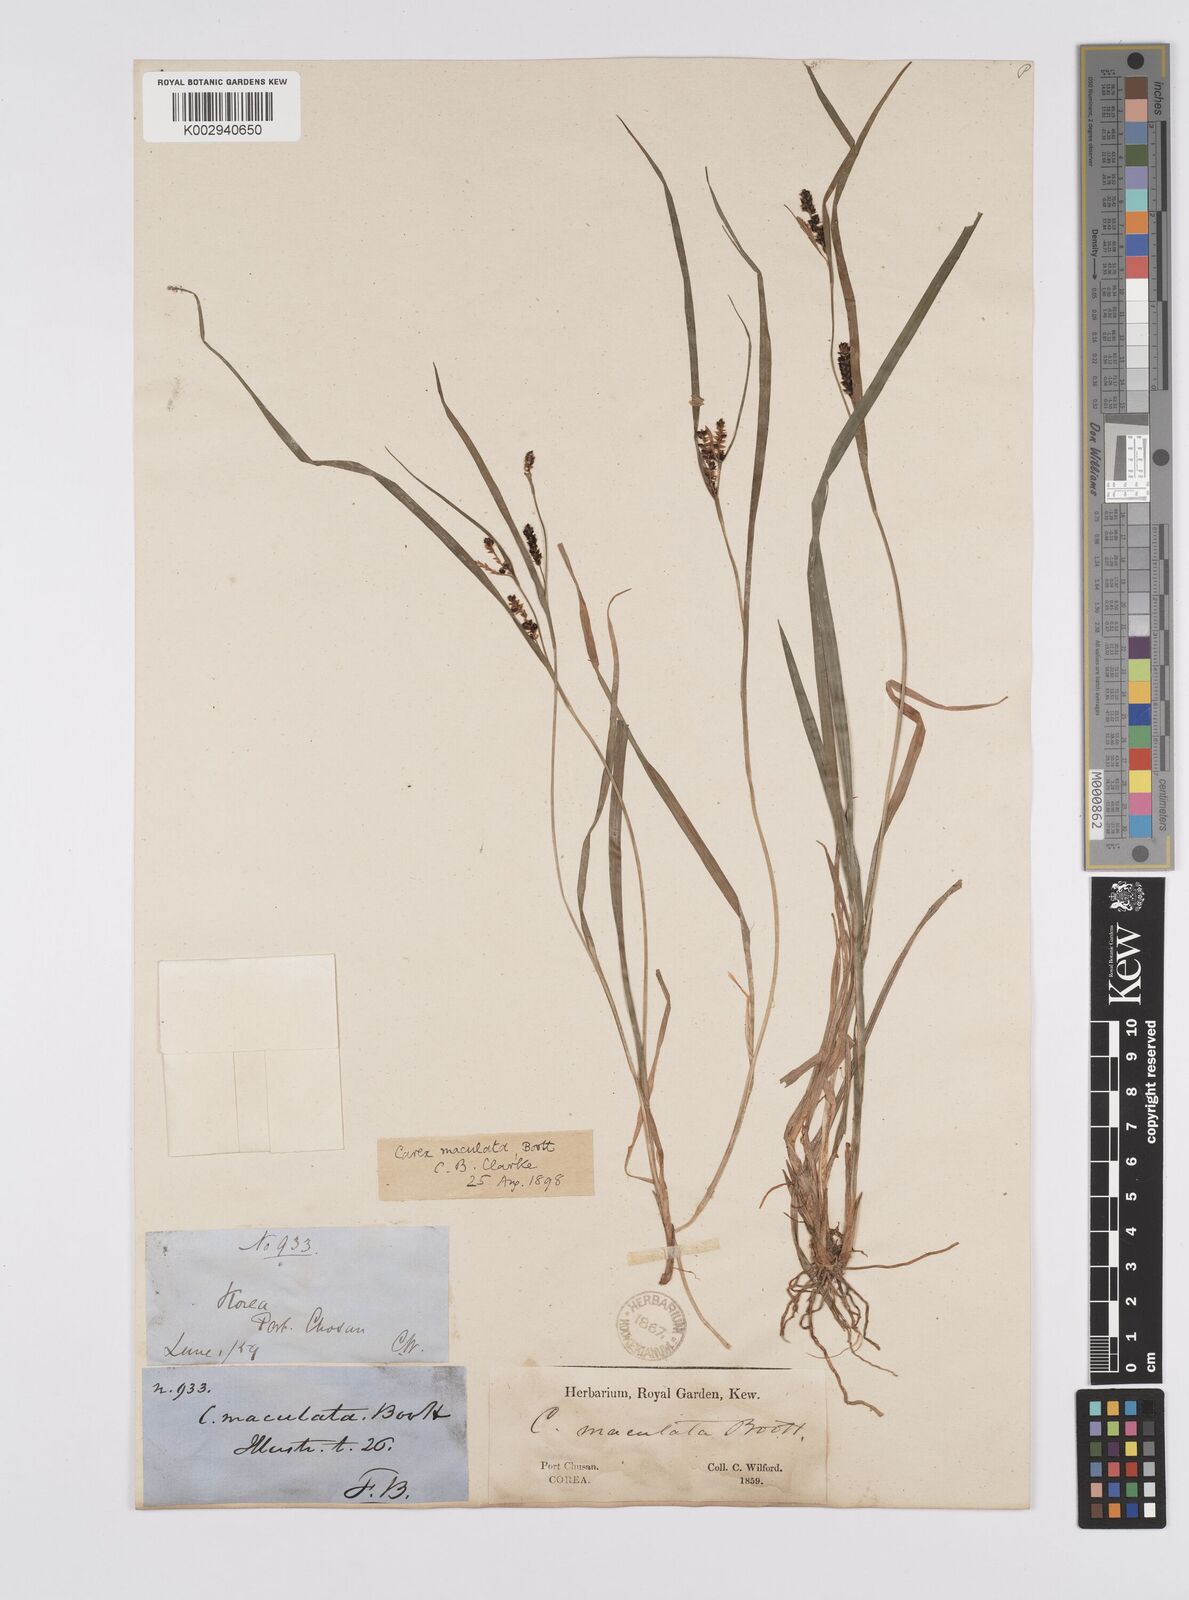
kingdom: Plantae
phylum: Tracheophyta
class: Liliopsida
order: Poales
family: Cyperaceae
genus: Carex
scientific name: Carex maculata
